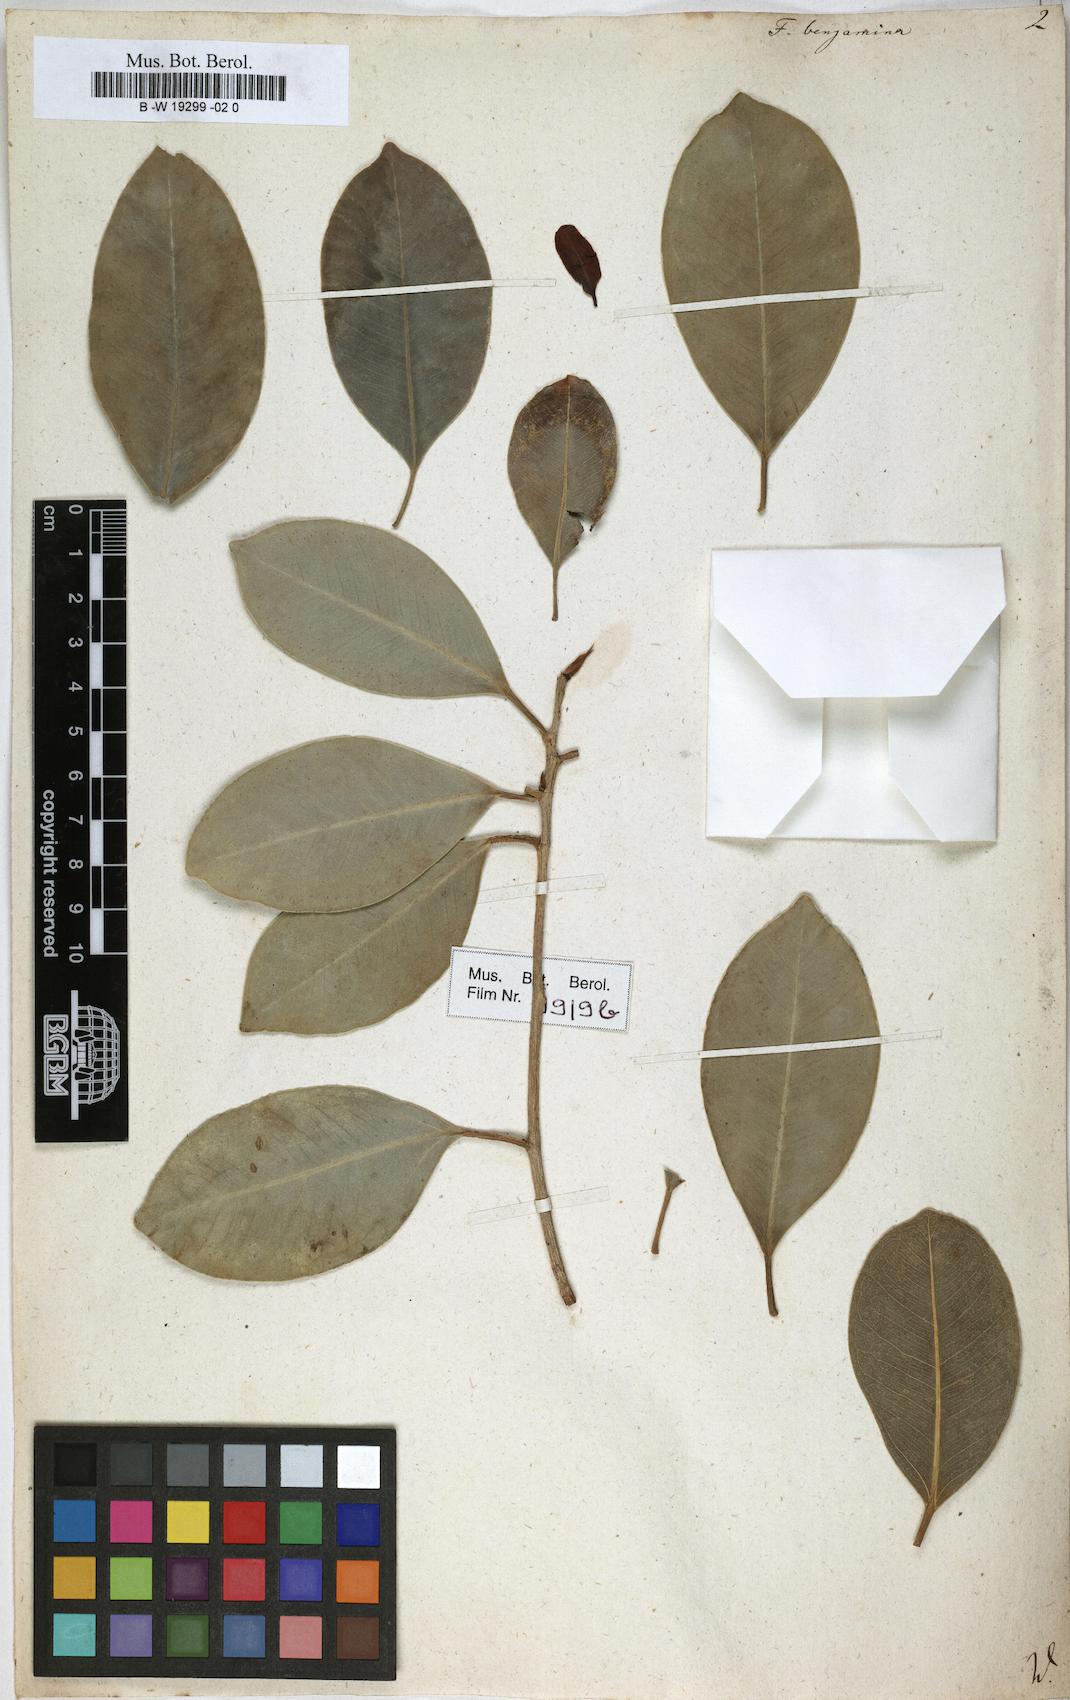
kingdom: Plantae
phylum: Tracheophyta
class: Magnoliopsida
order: Rosales
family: Moraceae
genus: Ficus
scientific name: Ficus benjamina
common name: Weeping fig
